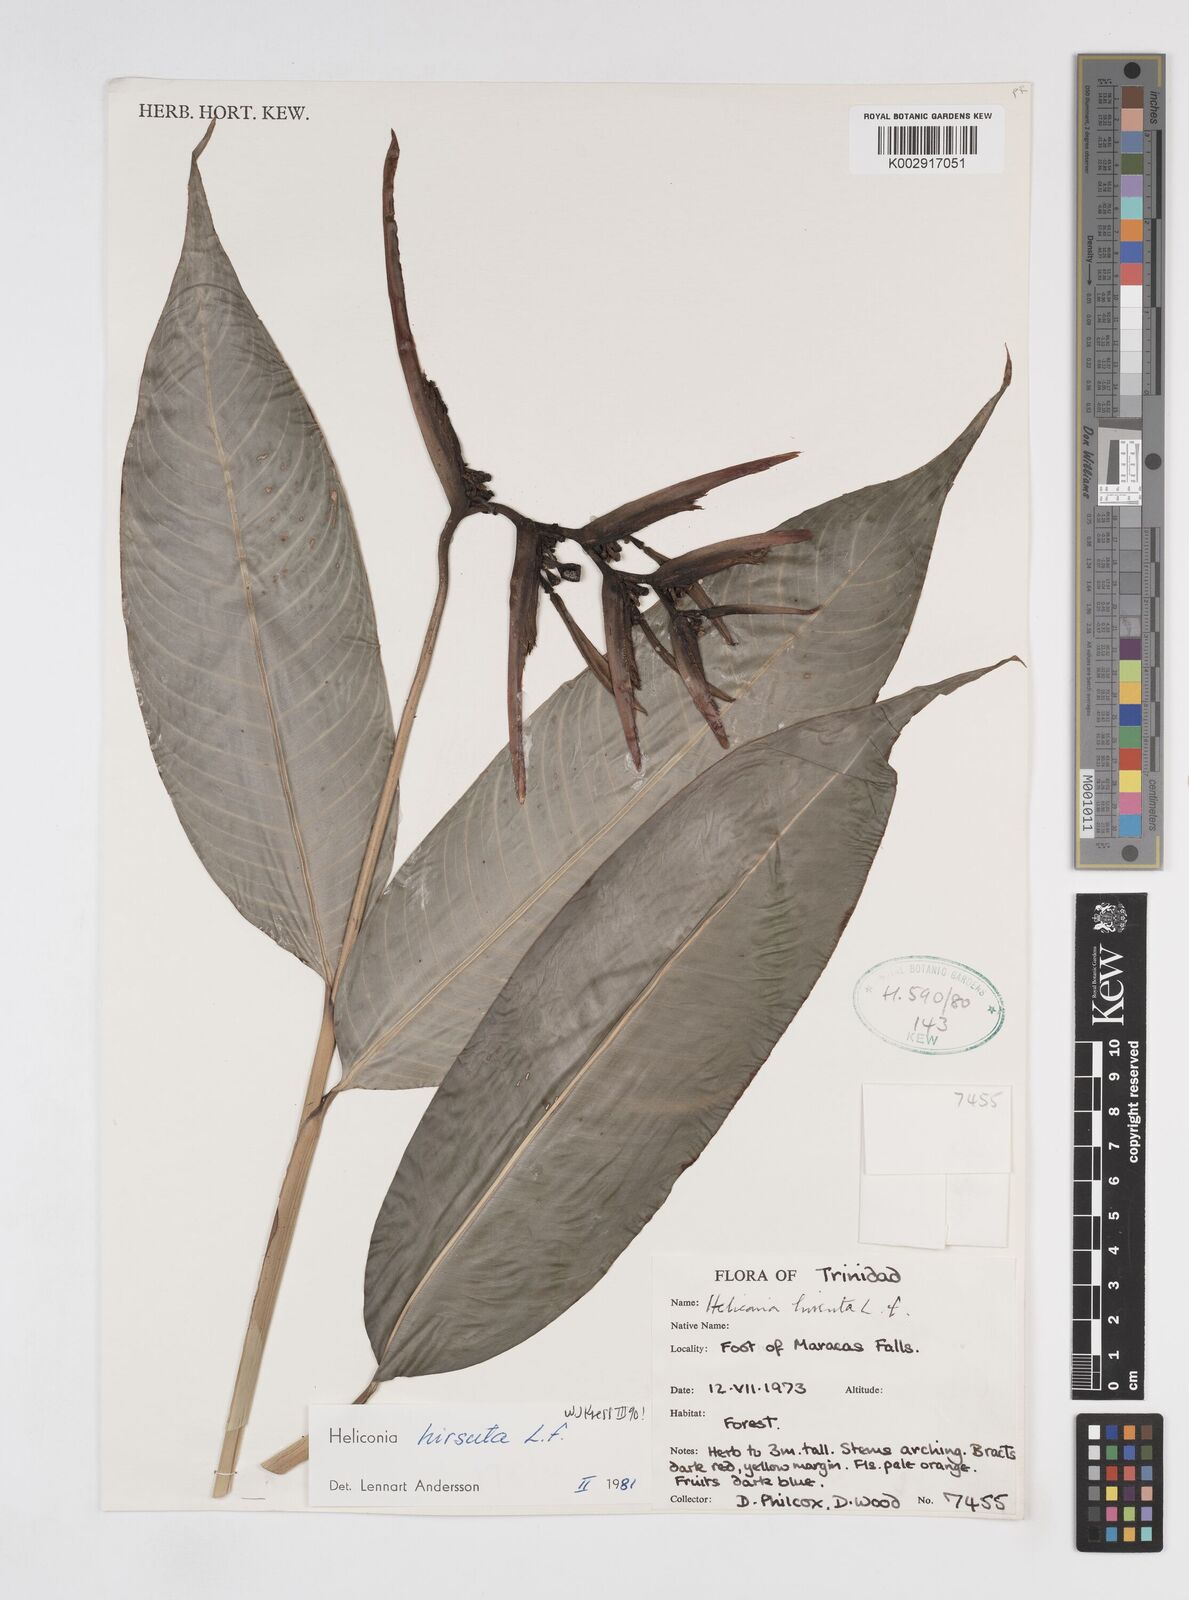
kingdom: Plantae
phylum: Tracheophyta
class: Liliopsida
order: Zingiberales
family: Heliconiaceae
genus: Heliconia
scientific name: Heliconia hirsuta
